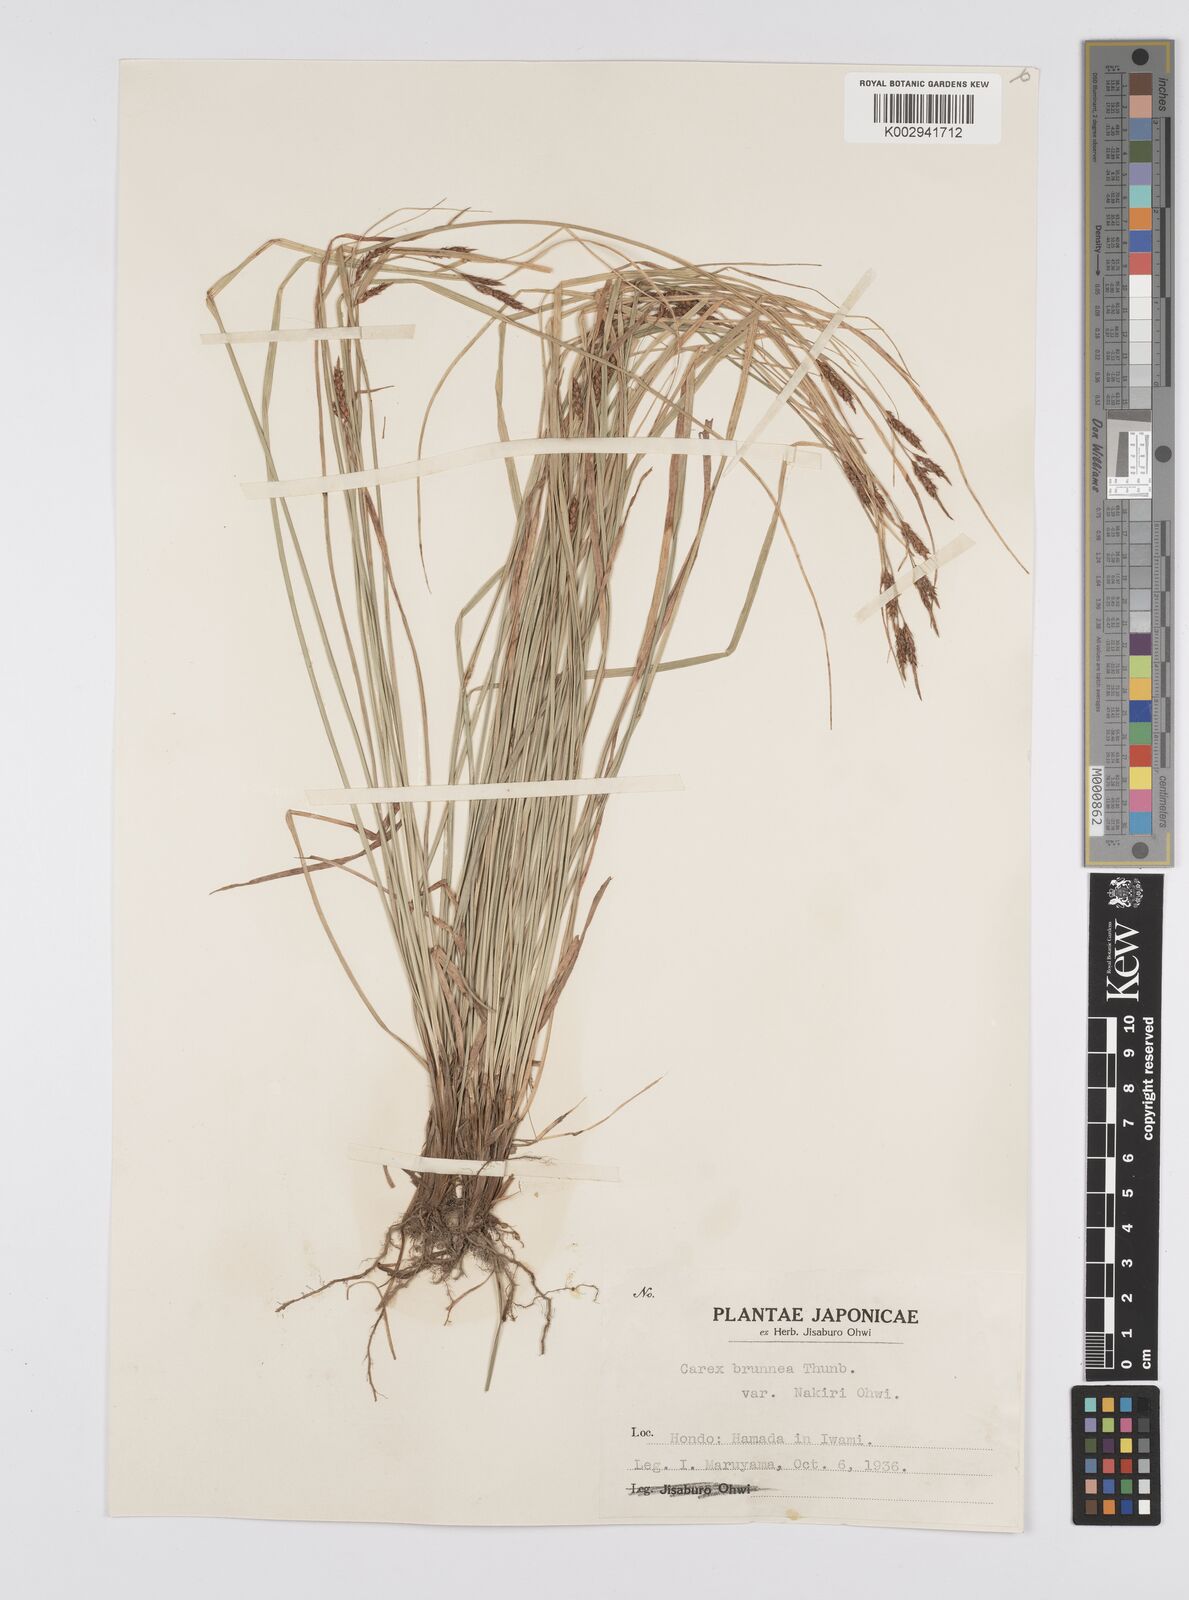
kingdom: Plantae
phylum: Tracheophyta
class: Liliopsida
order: Poales
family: Cyperaceae
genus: Carex
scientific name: Carex brunnea
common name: Greater brown sedge
